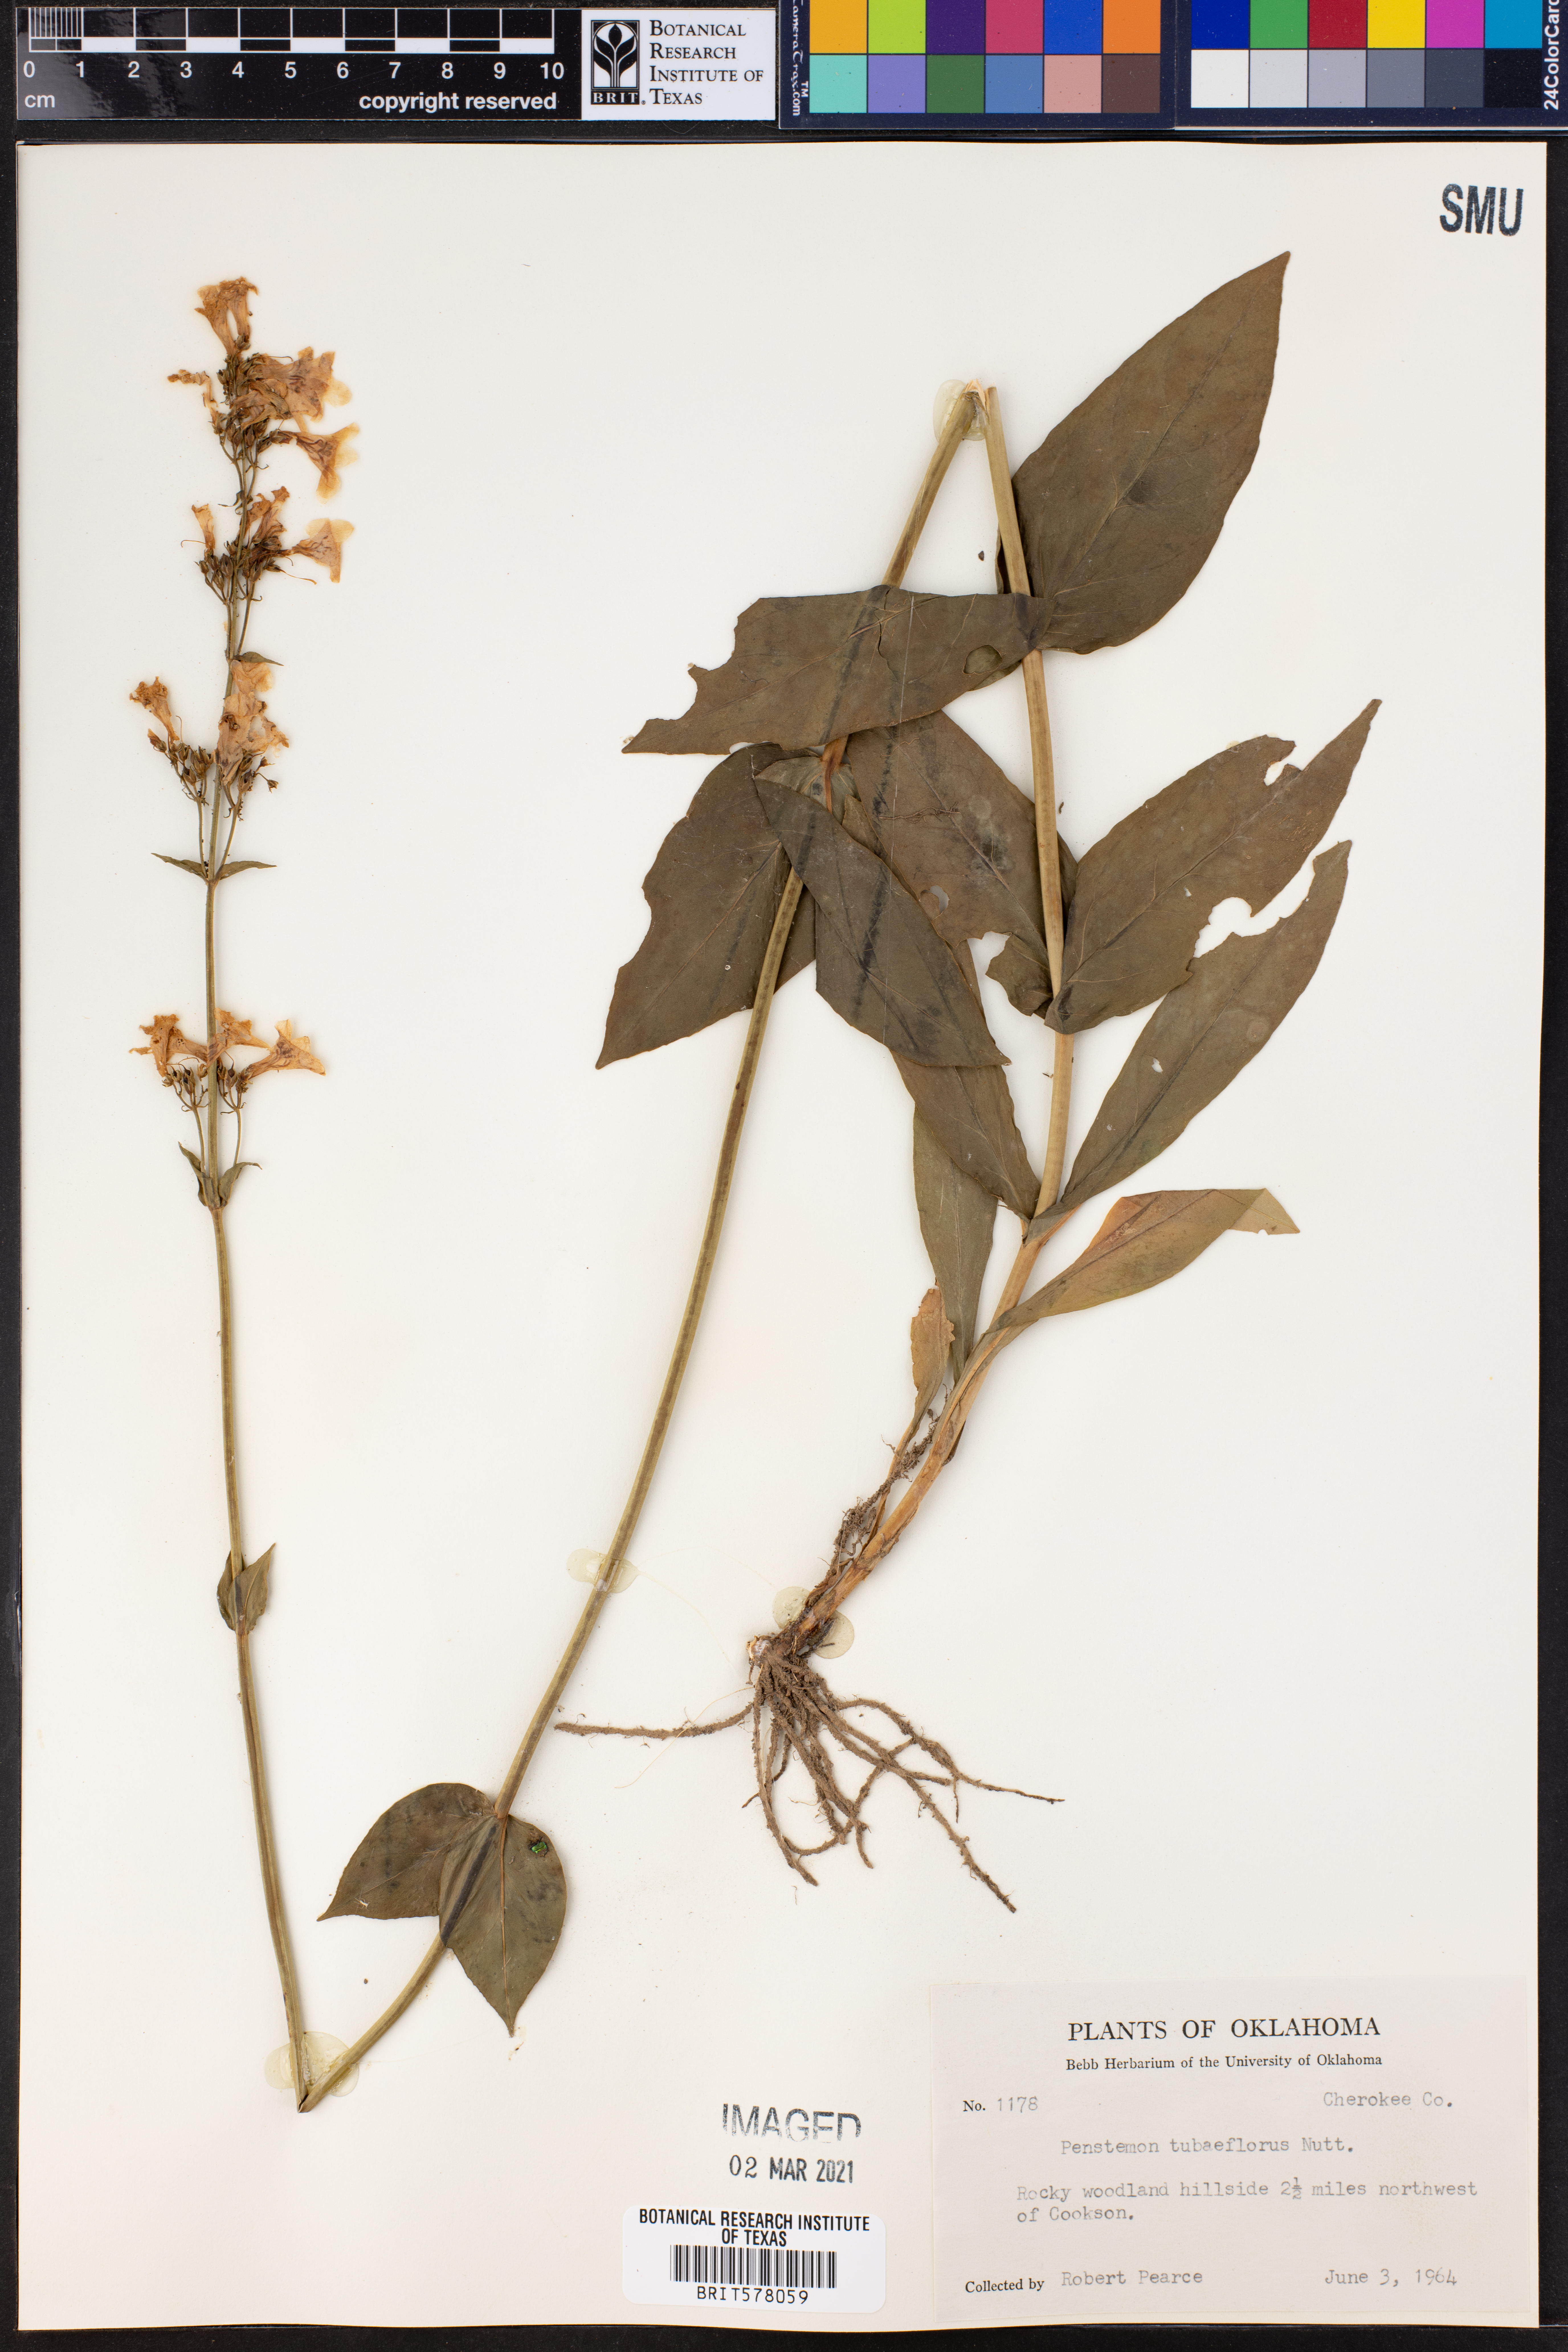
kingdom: Plantae
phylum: Tracheophyta
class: Magnoliopsida
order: Lamiales
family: Plantaginaceae
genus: Penstemon
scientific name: Penstemon tubaeflorus
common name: White wand beardtongue
